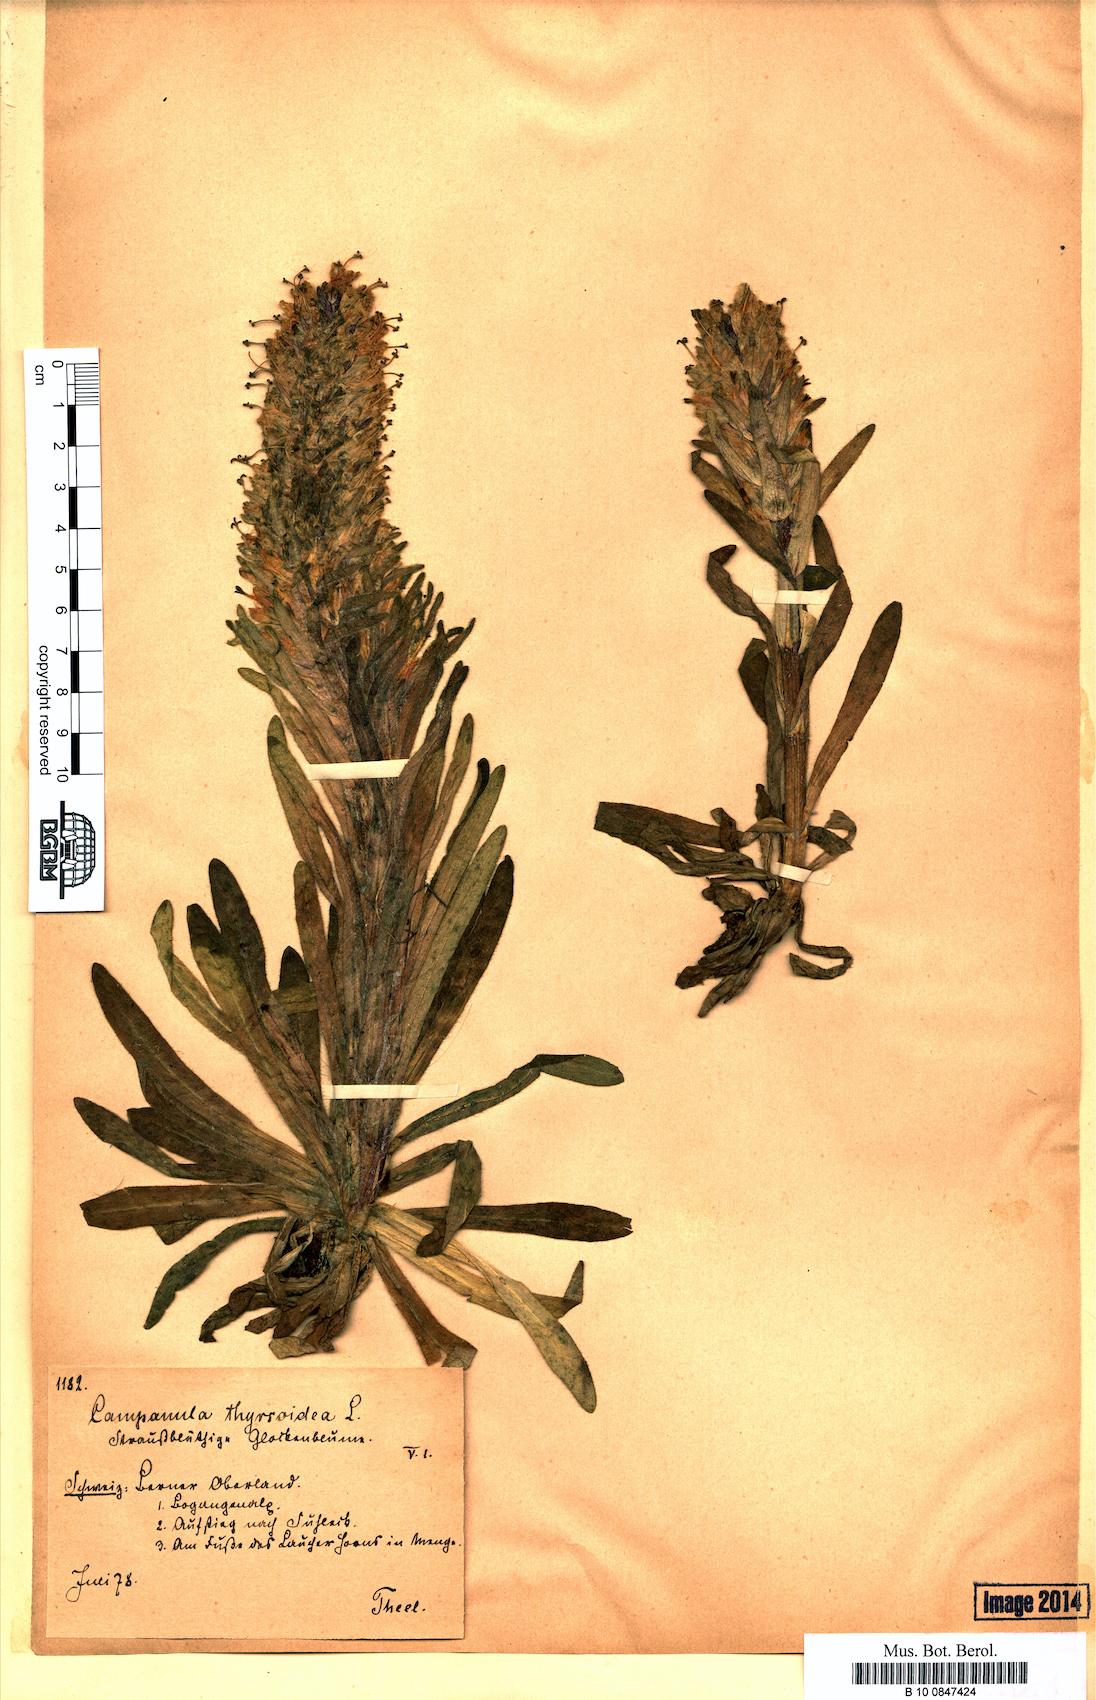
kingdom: Plantae
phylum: Tracheophyta
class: Magnoliopsida
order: Asterales
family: Campanulaceae
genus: Campanula
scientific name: Campanula thyrsoides
